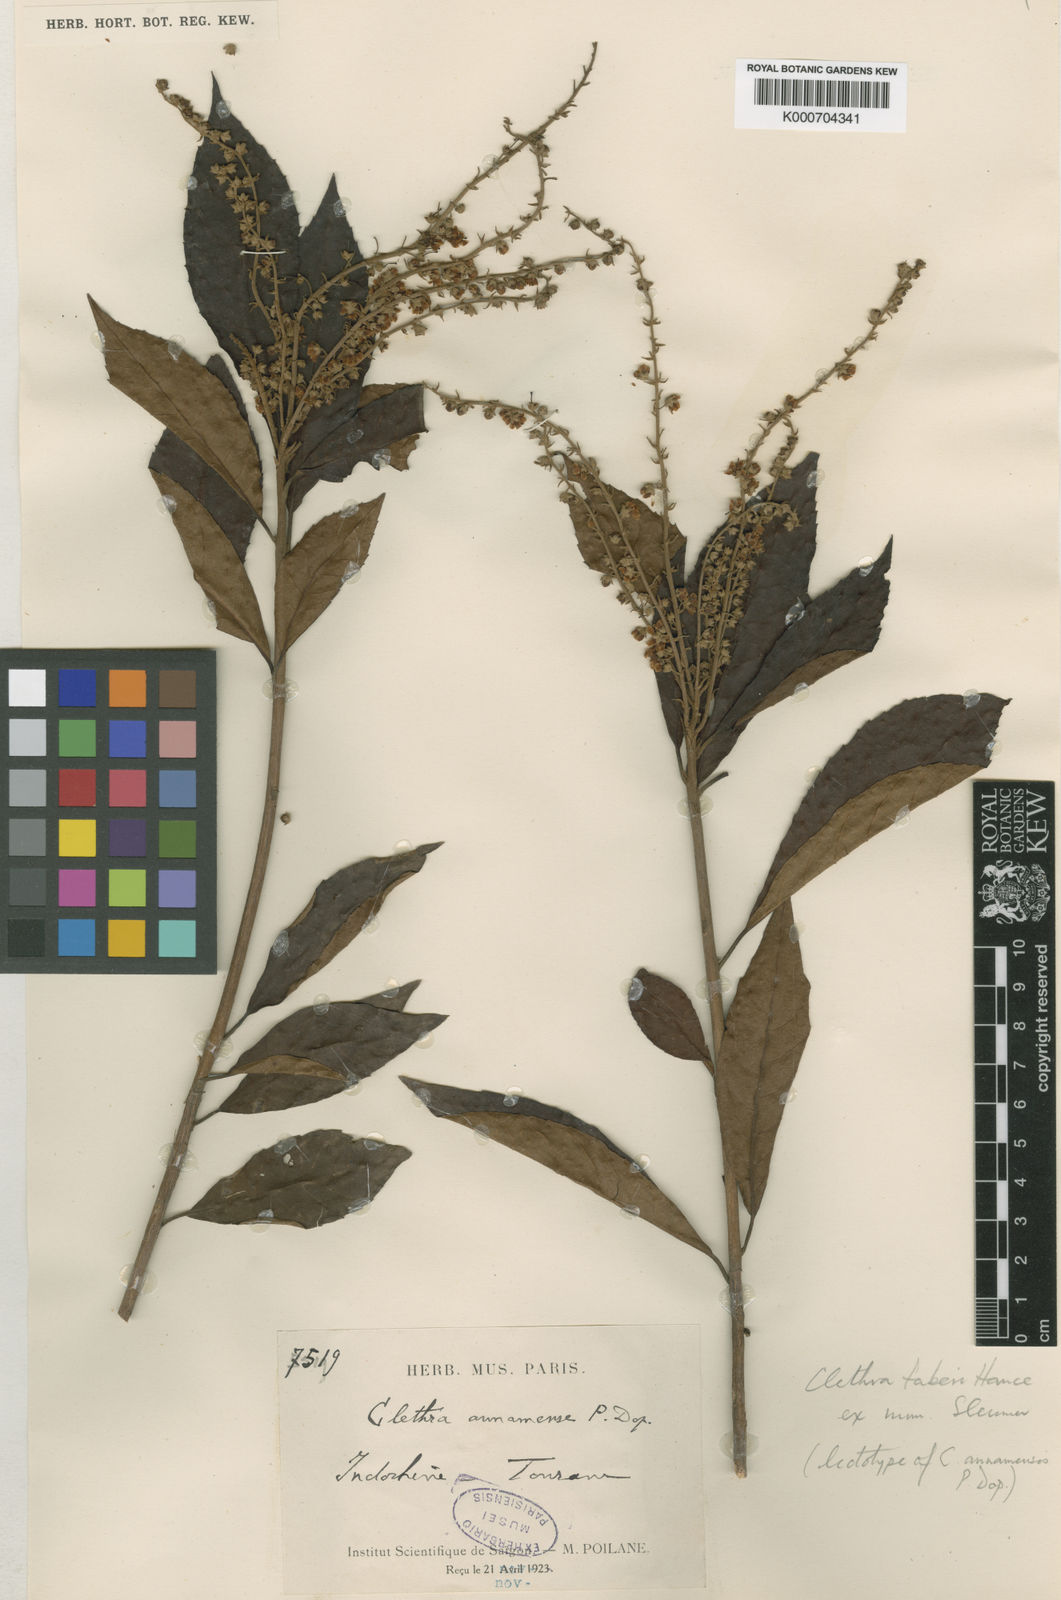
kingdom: Plantae
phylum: Tracheophyta
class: Magnoliopsida
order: Ericales
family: Clethraceae
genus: Clethra
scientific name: Clethra fabri
